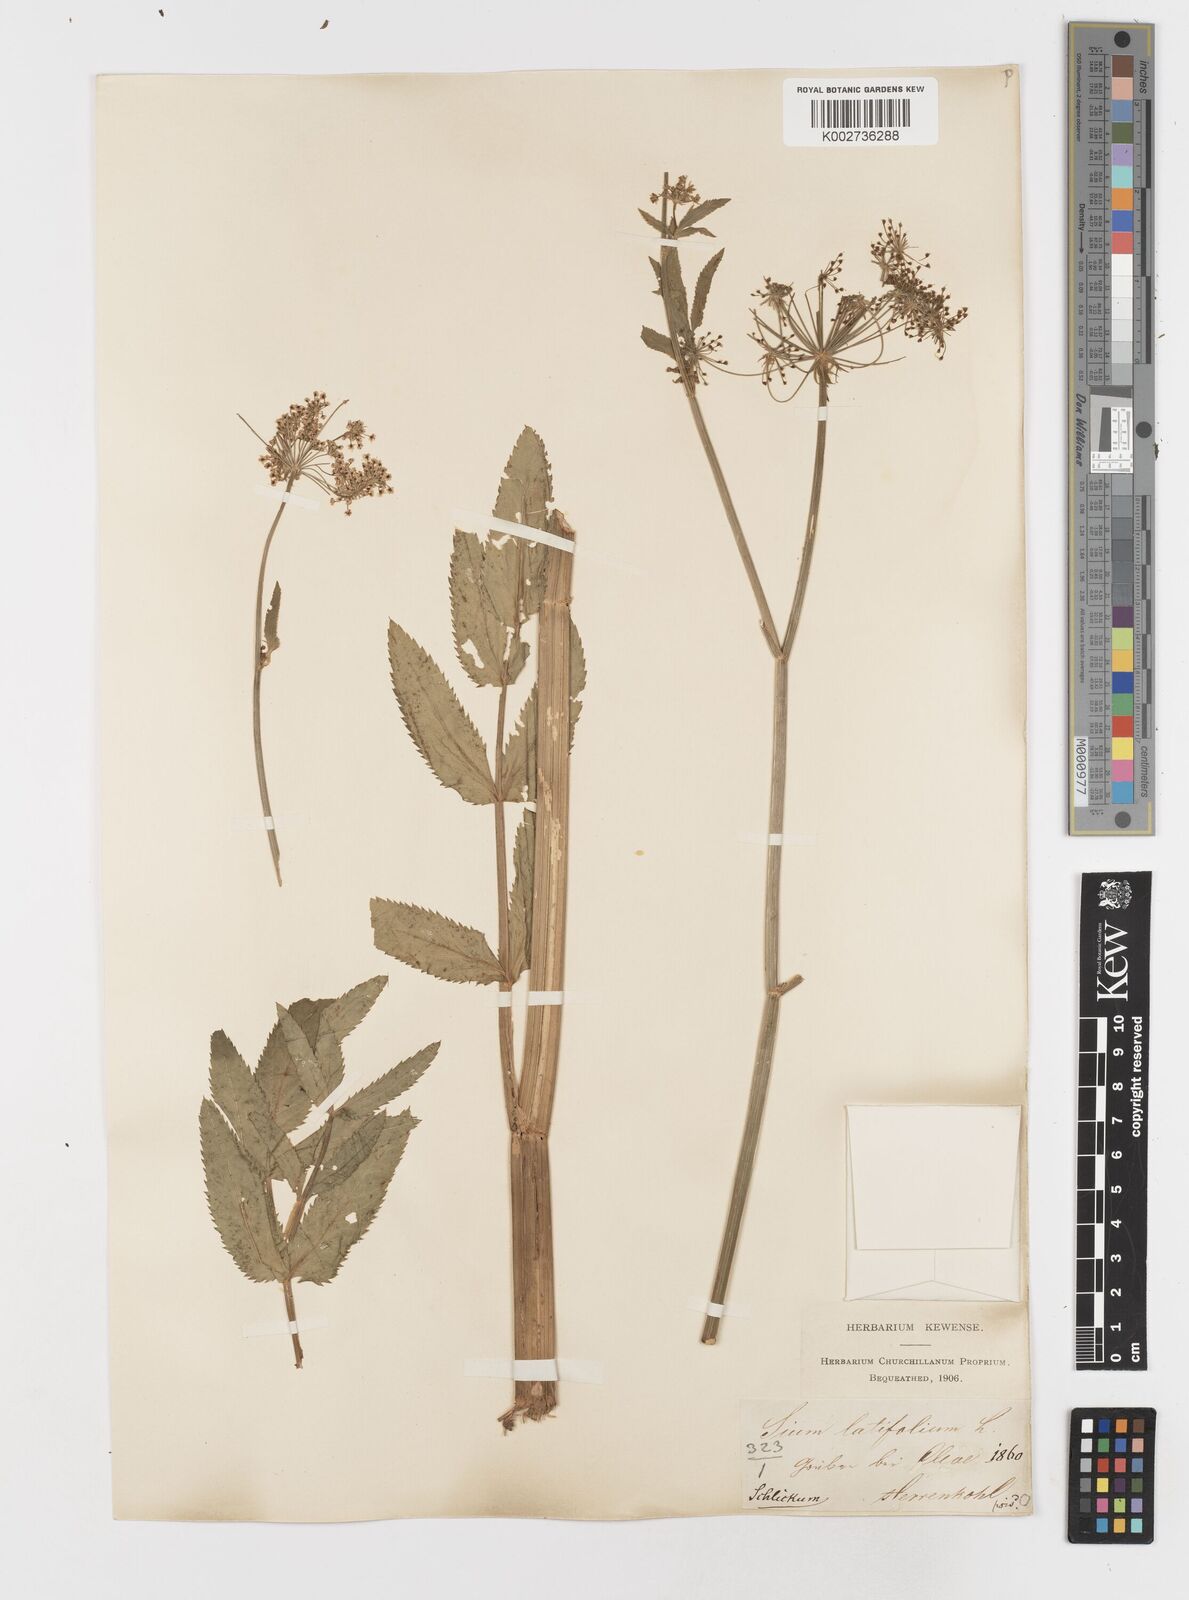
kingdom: Plantae
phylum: Tracheophyta
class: Magnoliopsida
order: Apiales
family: Apiaceae
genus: Sium
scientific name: Sium latifolium
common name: Greater water-parsnip
